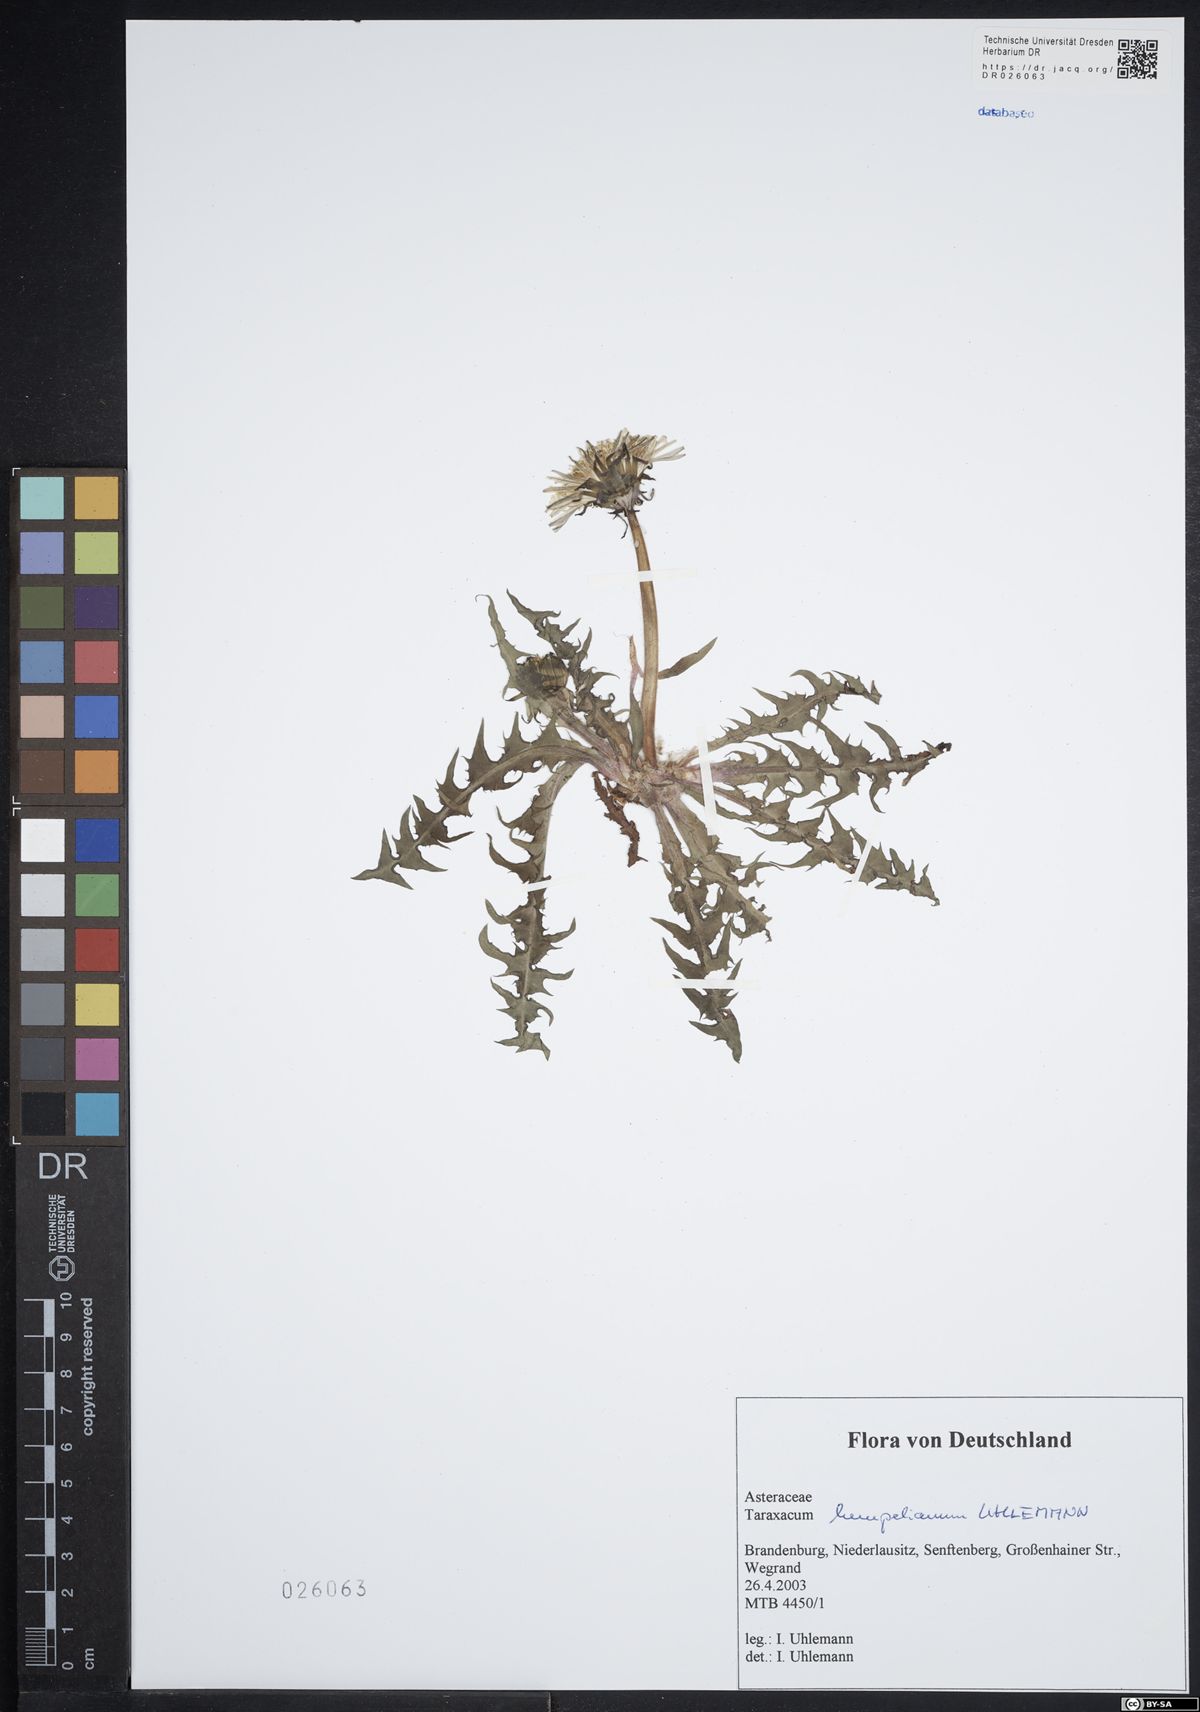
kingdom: Plantae
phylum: Tracheophyta
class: Magnoliopsida
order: Asterales
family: Asteraceae
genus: Taraxacum
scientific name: Taraxacum hempelianum
